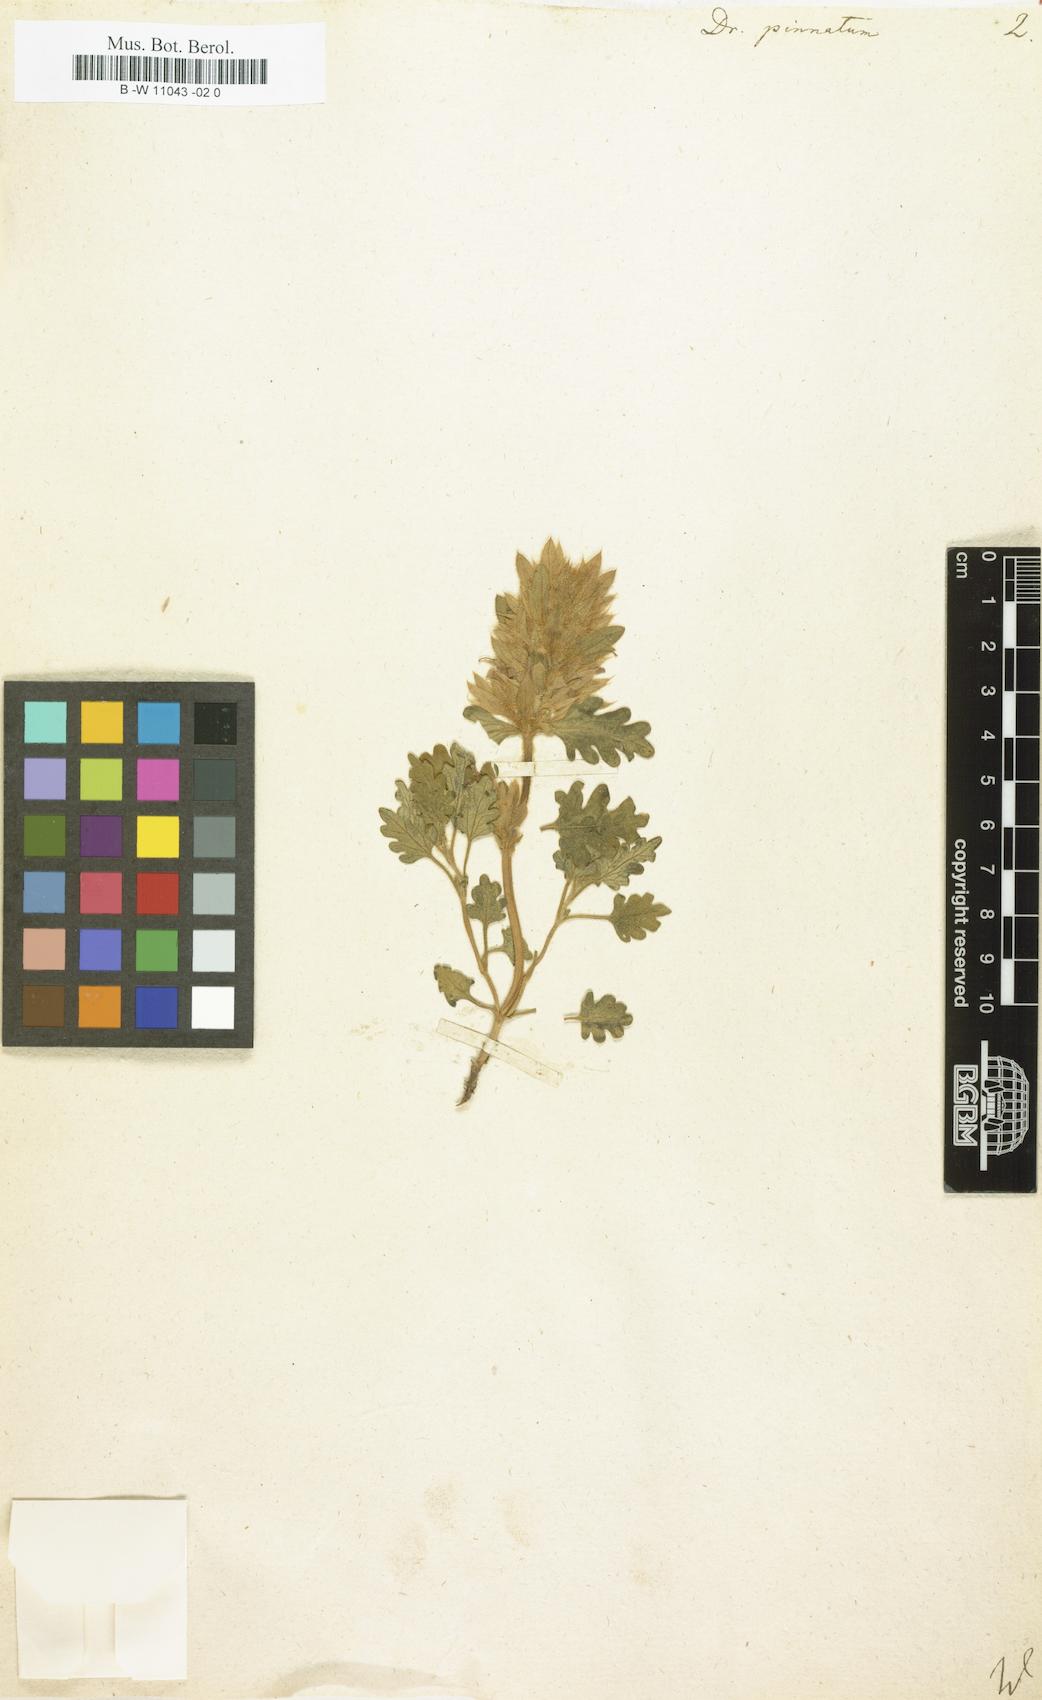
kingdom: Plantae
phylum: Tracheophyta
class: Magnoliopsida
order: Lamiales
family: Lamiaceae
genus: Dracocephalum
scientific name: Dracocephalum pinnatum
